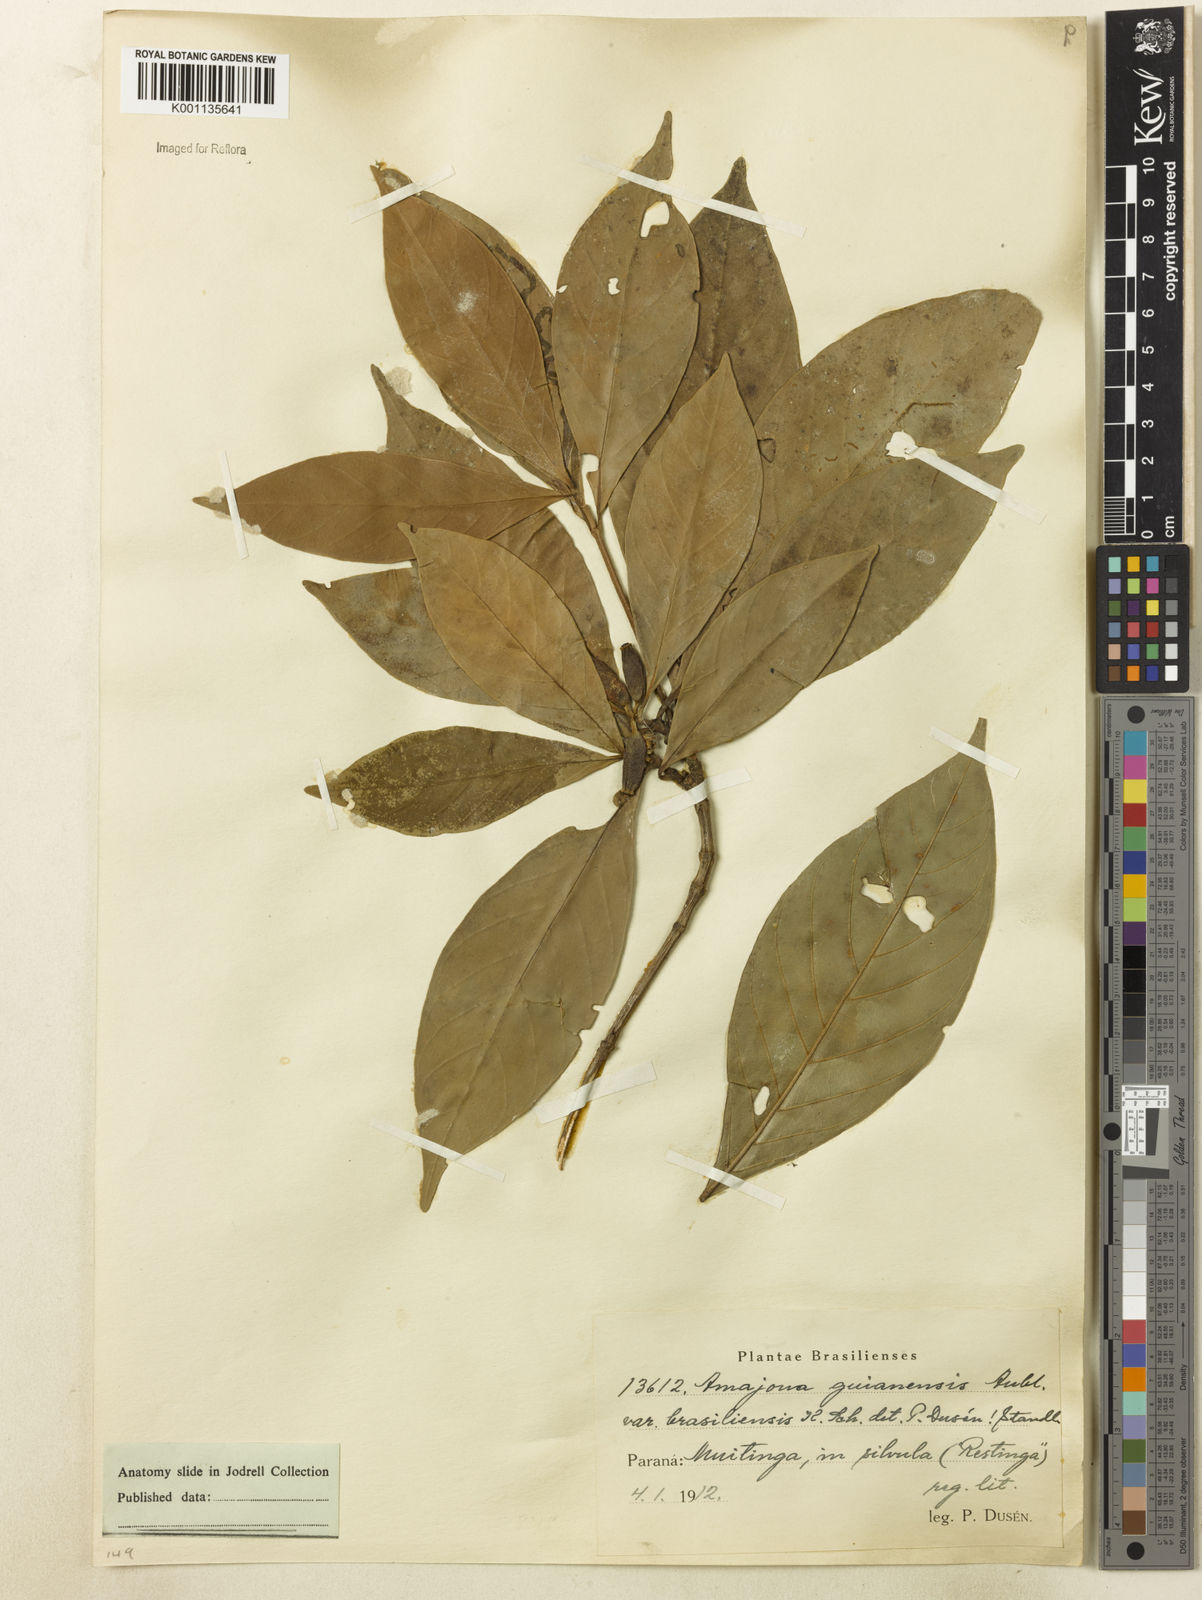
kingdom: Plantae
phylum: Tracheophyta
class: Magnoliopsida
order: Gentianales
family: Rubiaceae
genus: Amaioua
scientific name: Amaioua intermedia
